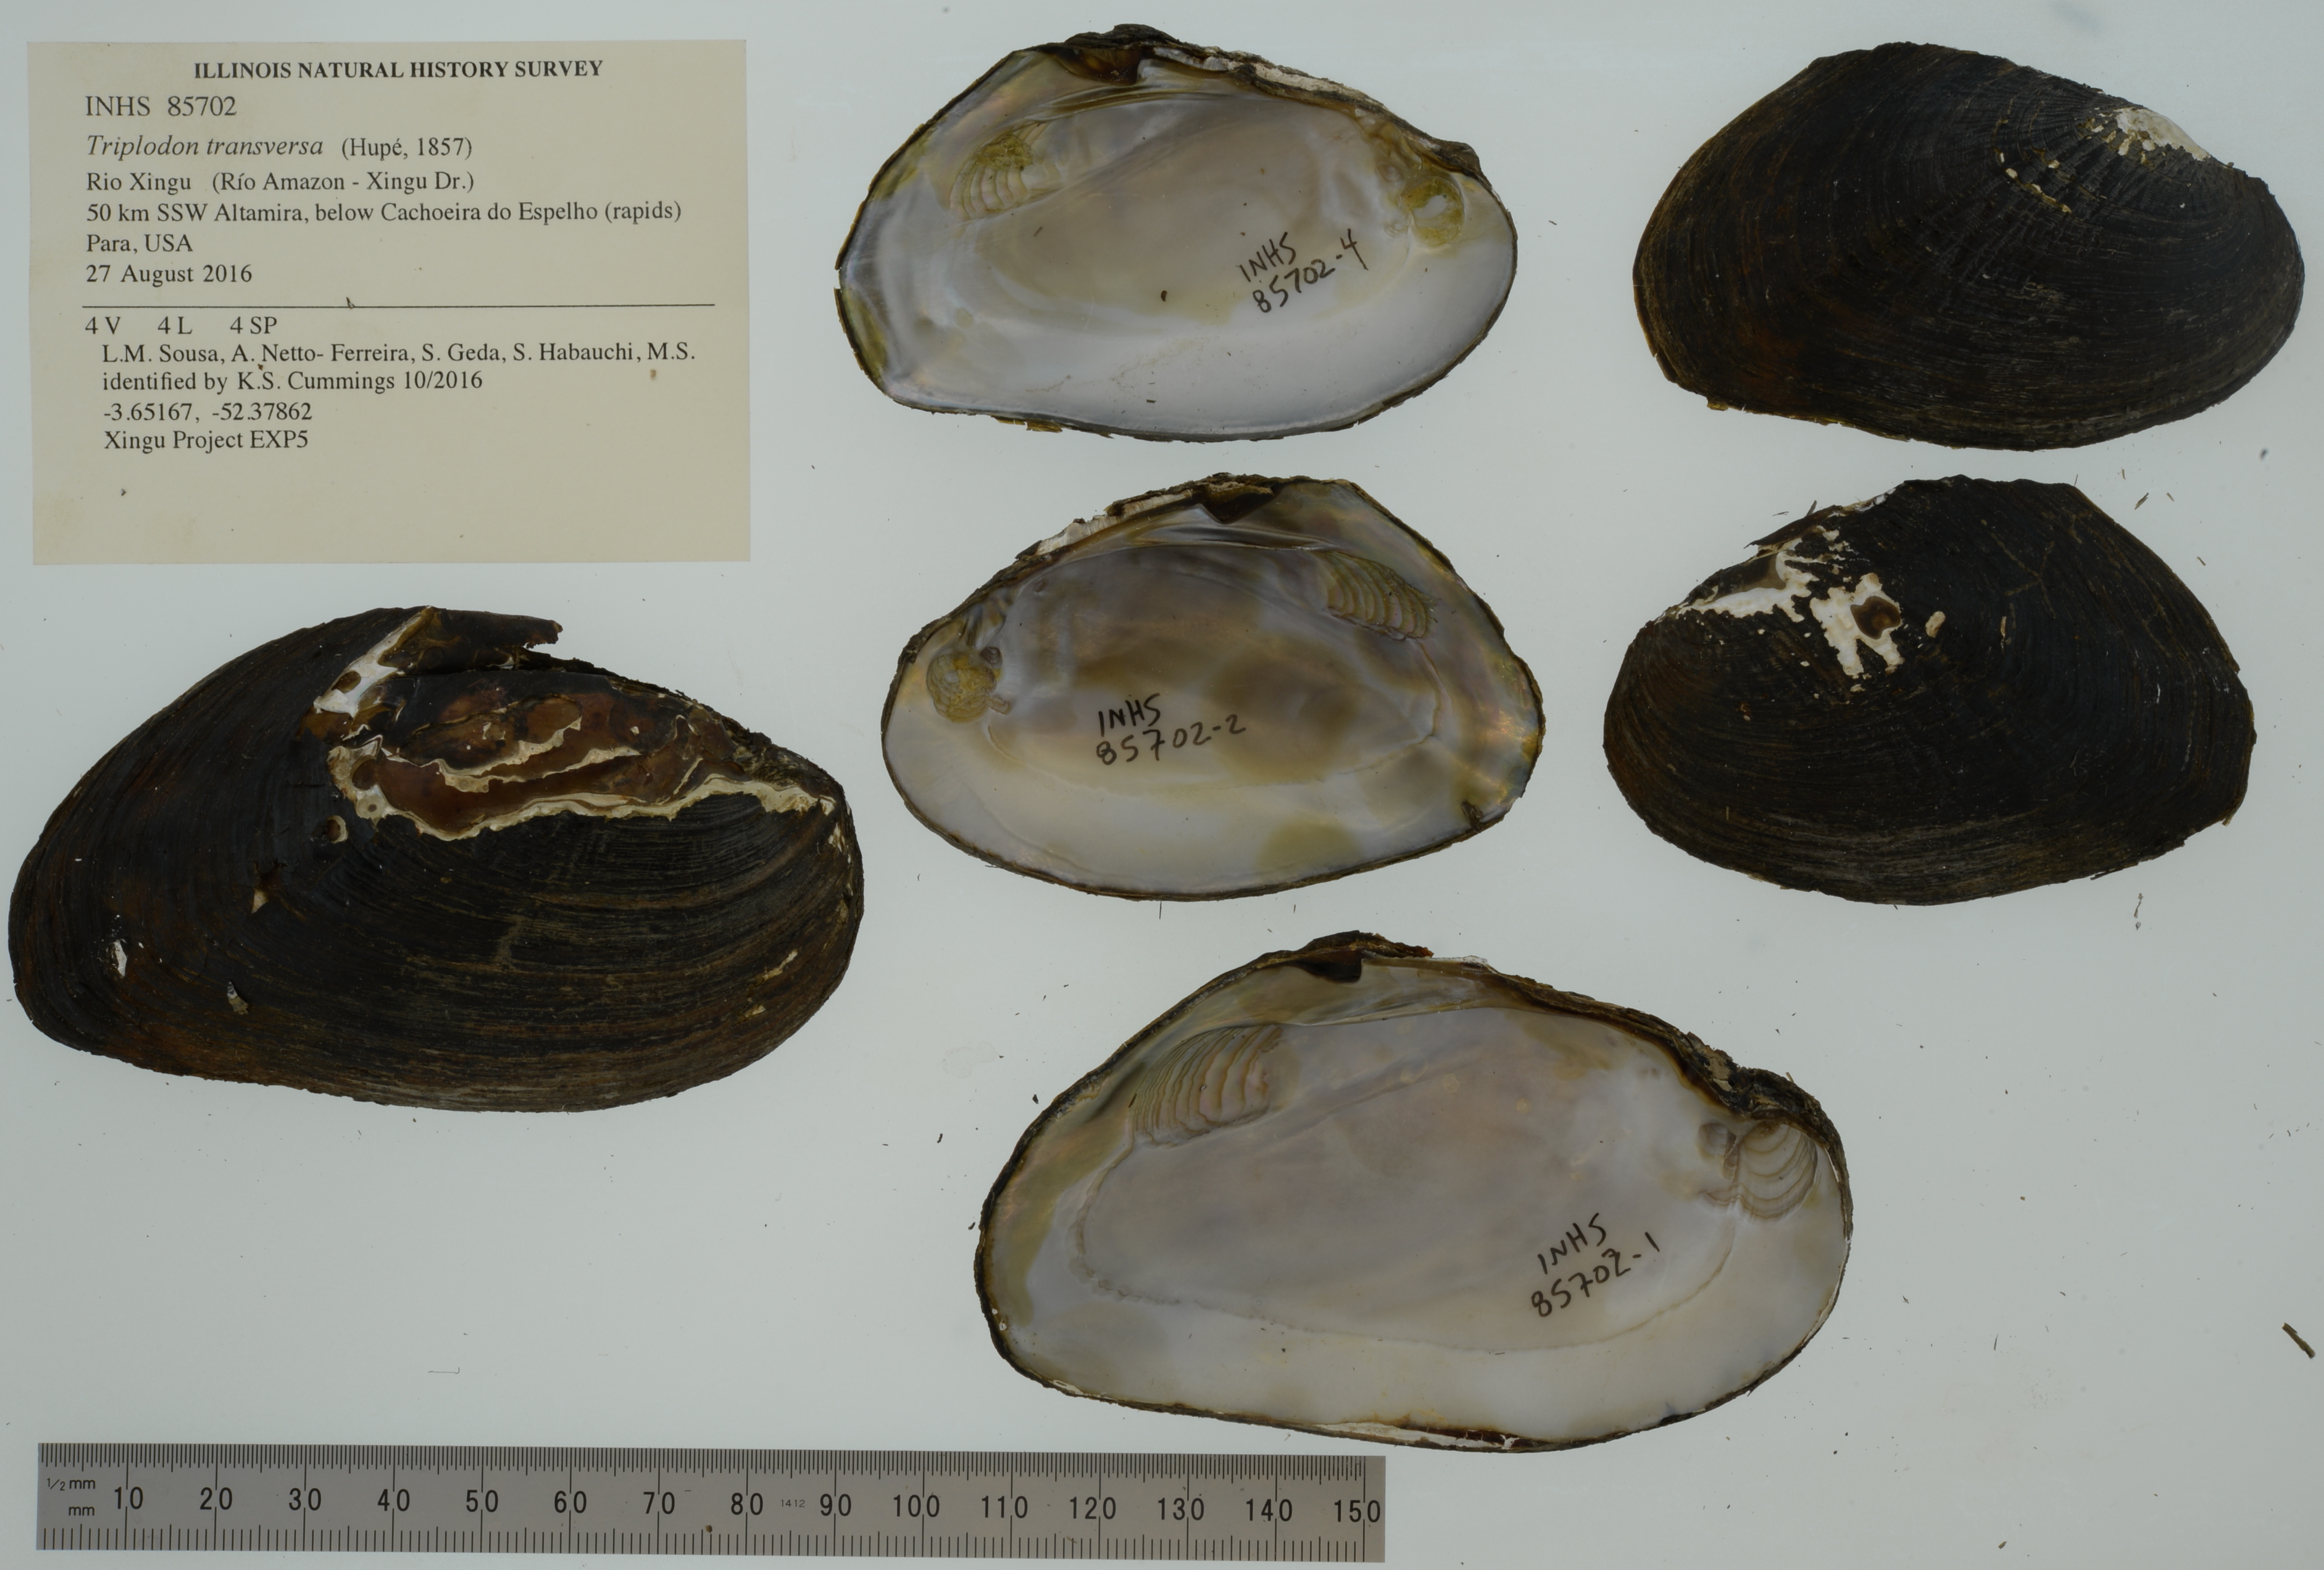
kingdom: Animalia
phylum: Mollusca
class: Bivalvia
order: Unionida
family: Hyriidae
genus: Triplodon
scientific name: Triplodon
